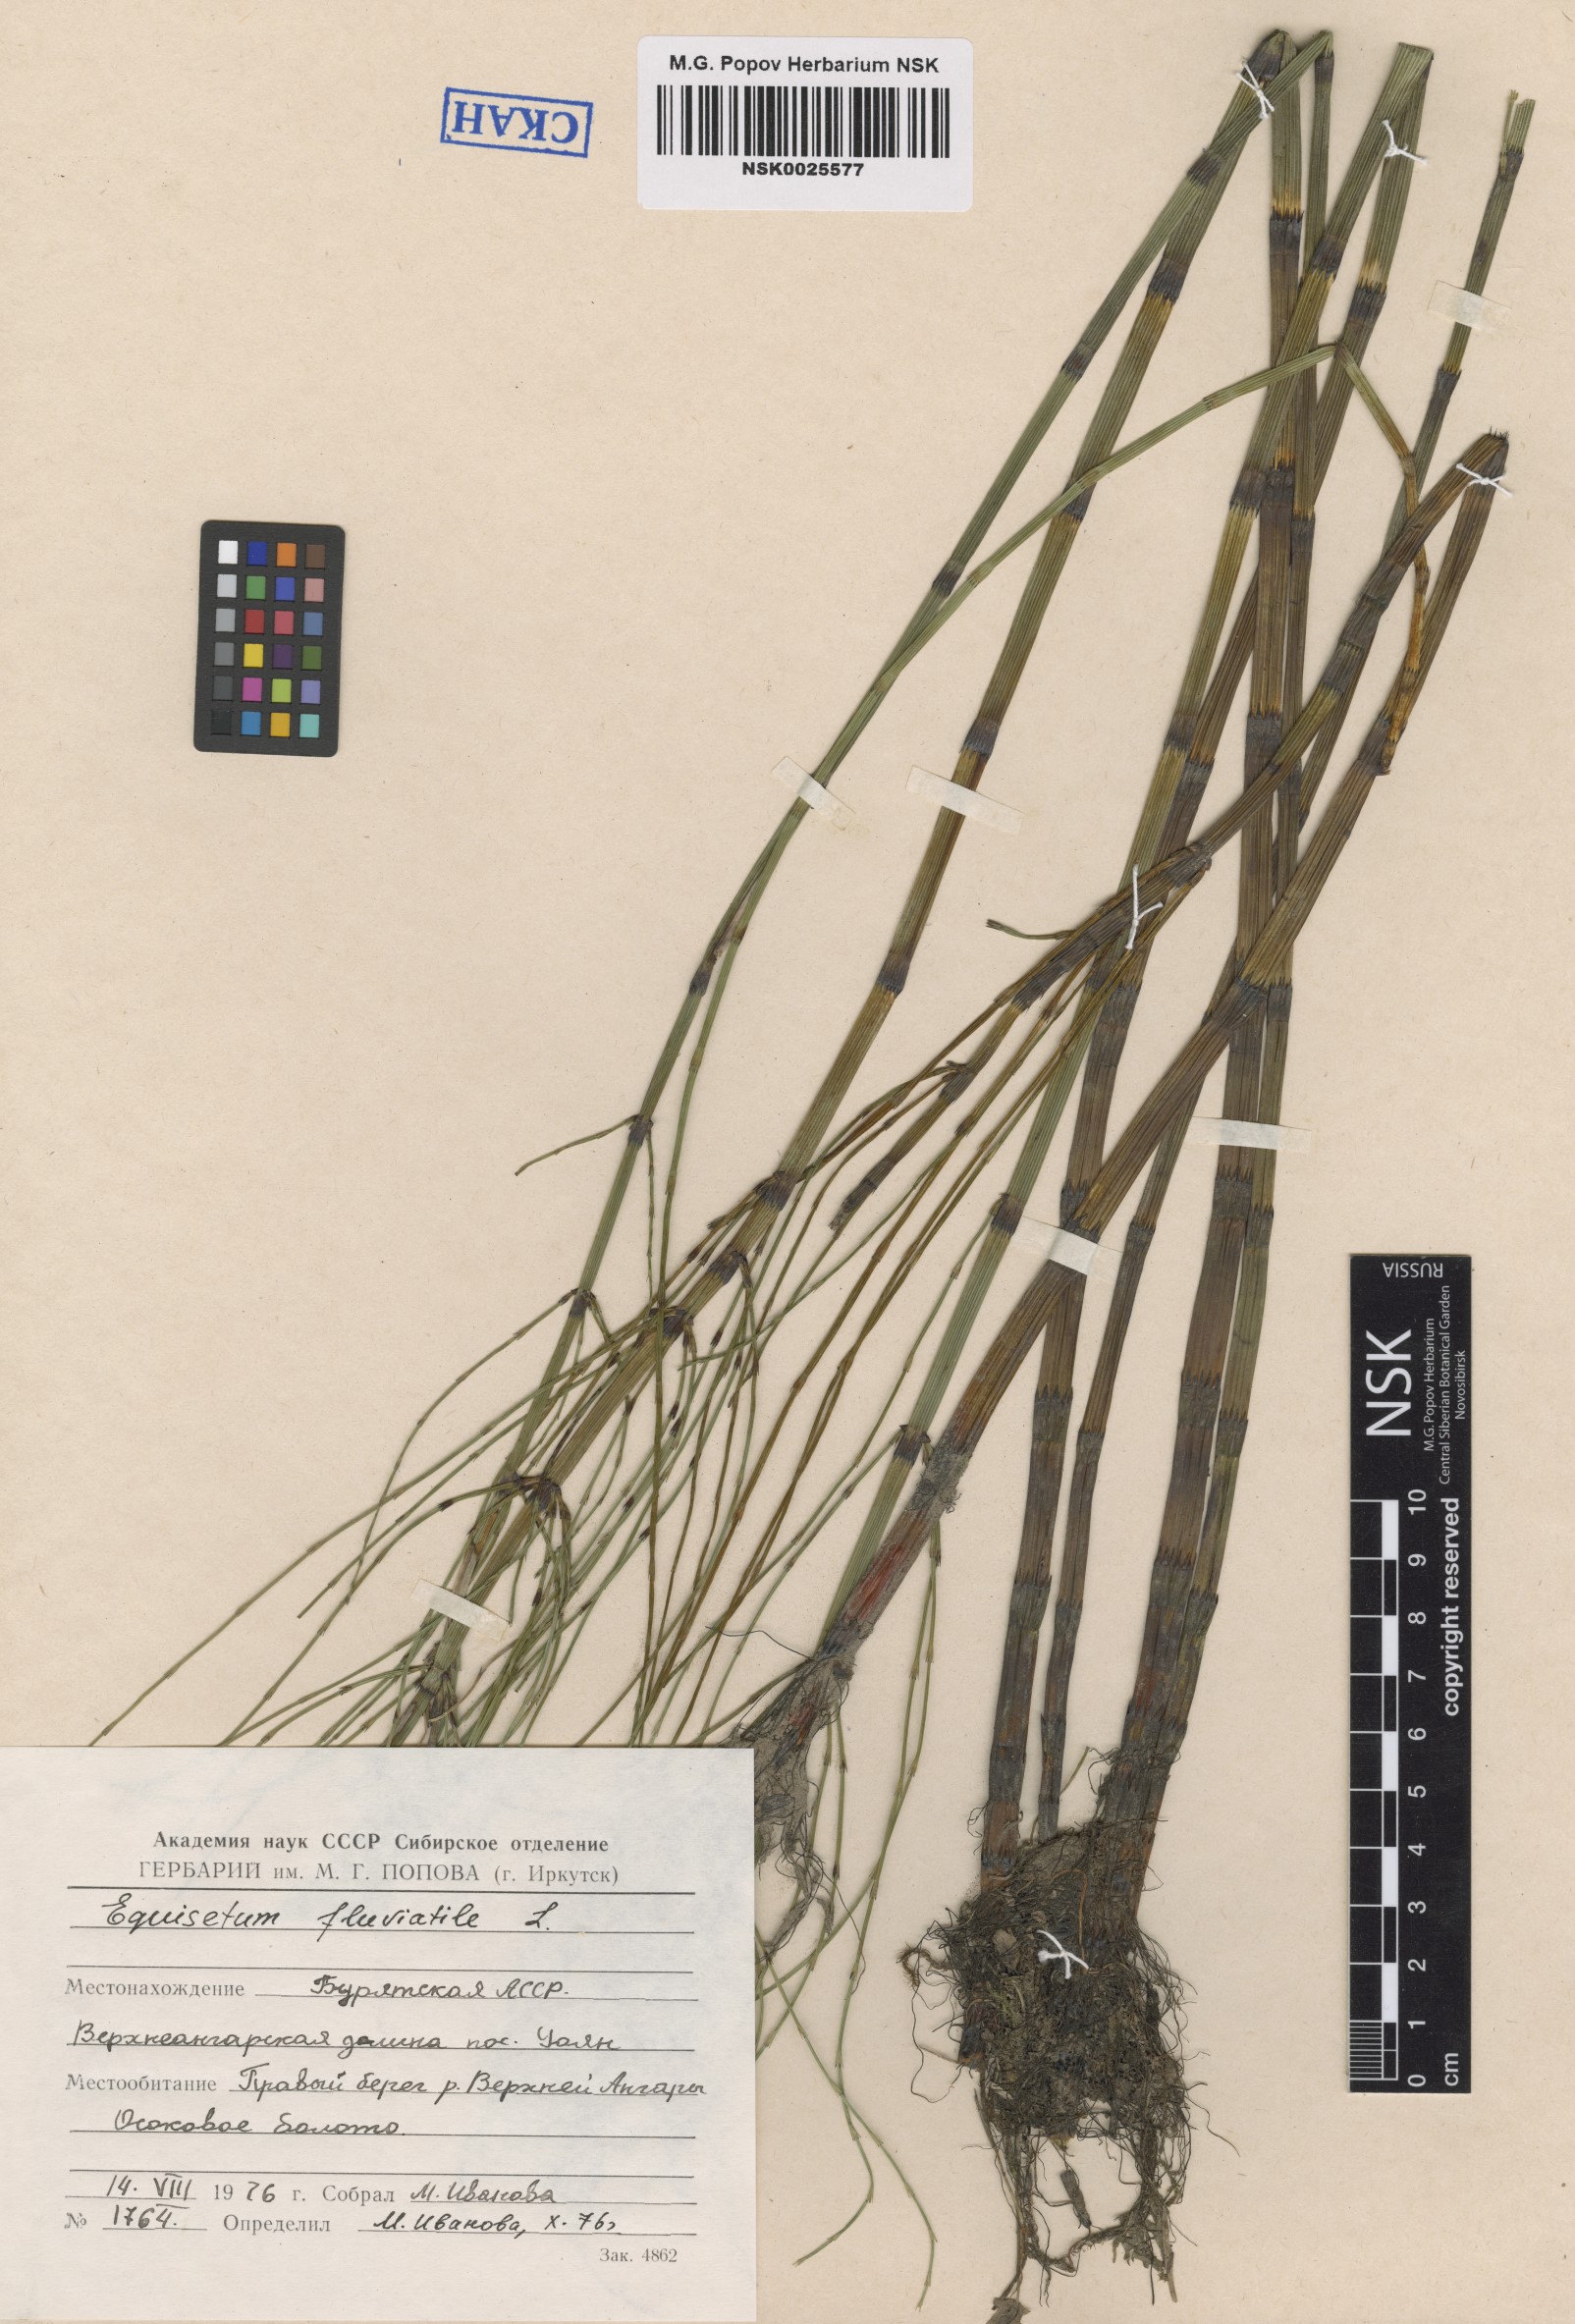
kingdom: Plantae
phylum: Tracheophyta
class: Polypodiopsida
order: Equisetales
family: Equisetaceae
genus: Equisetum
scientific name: Equisetum fluviatile
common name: Water horsetail
